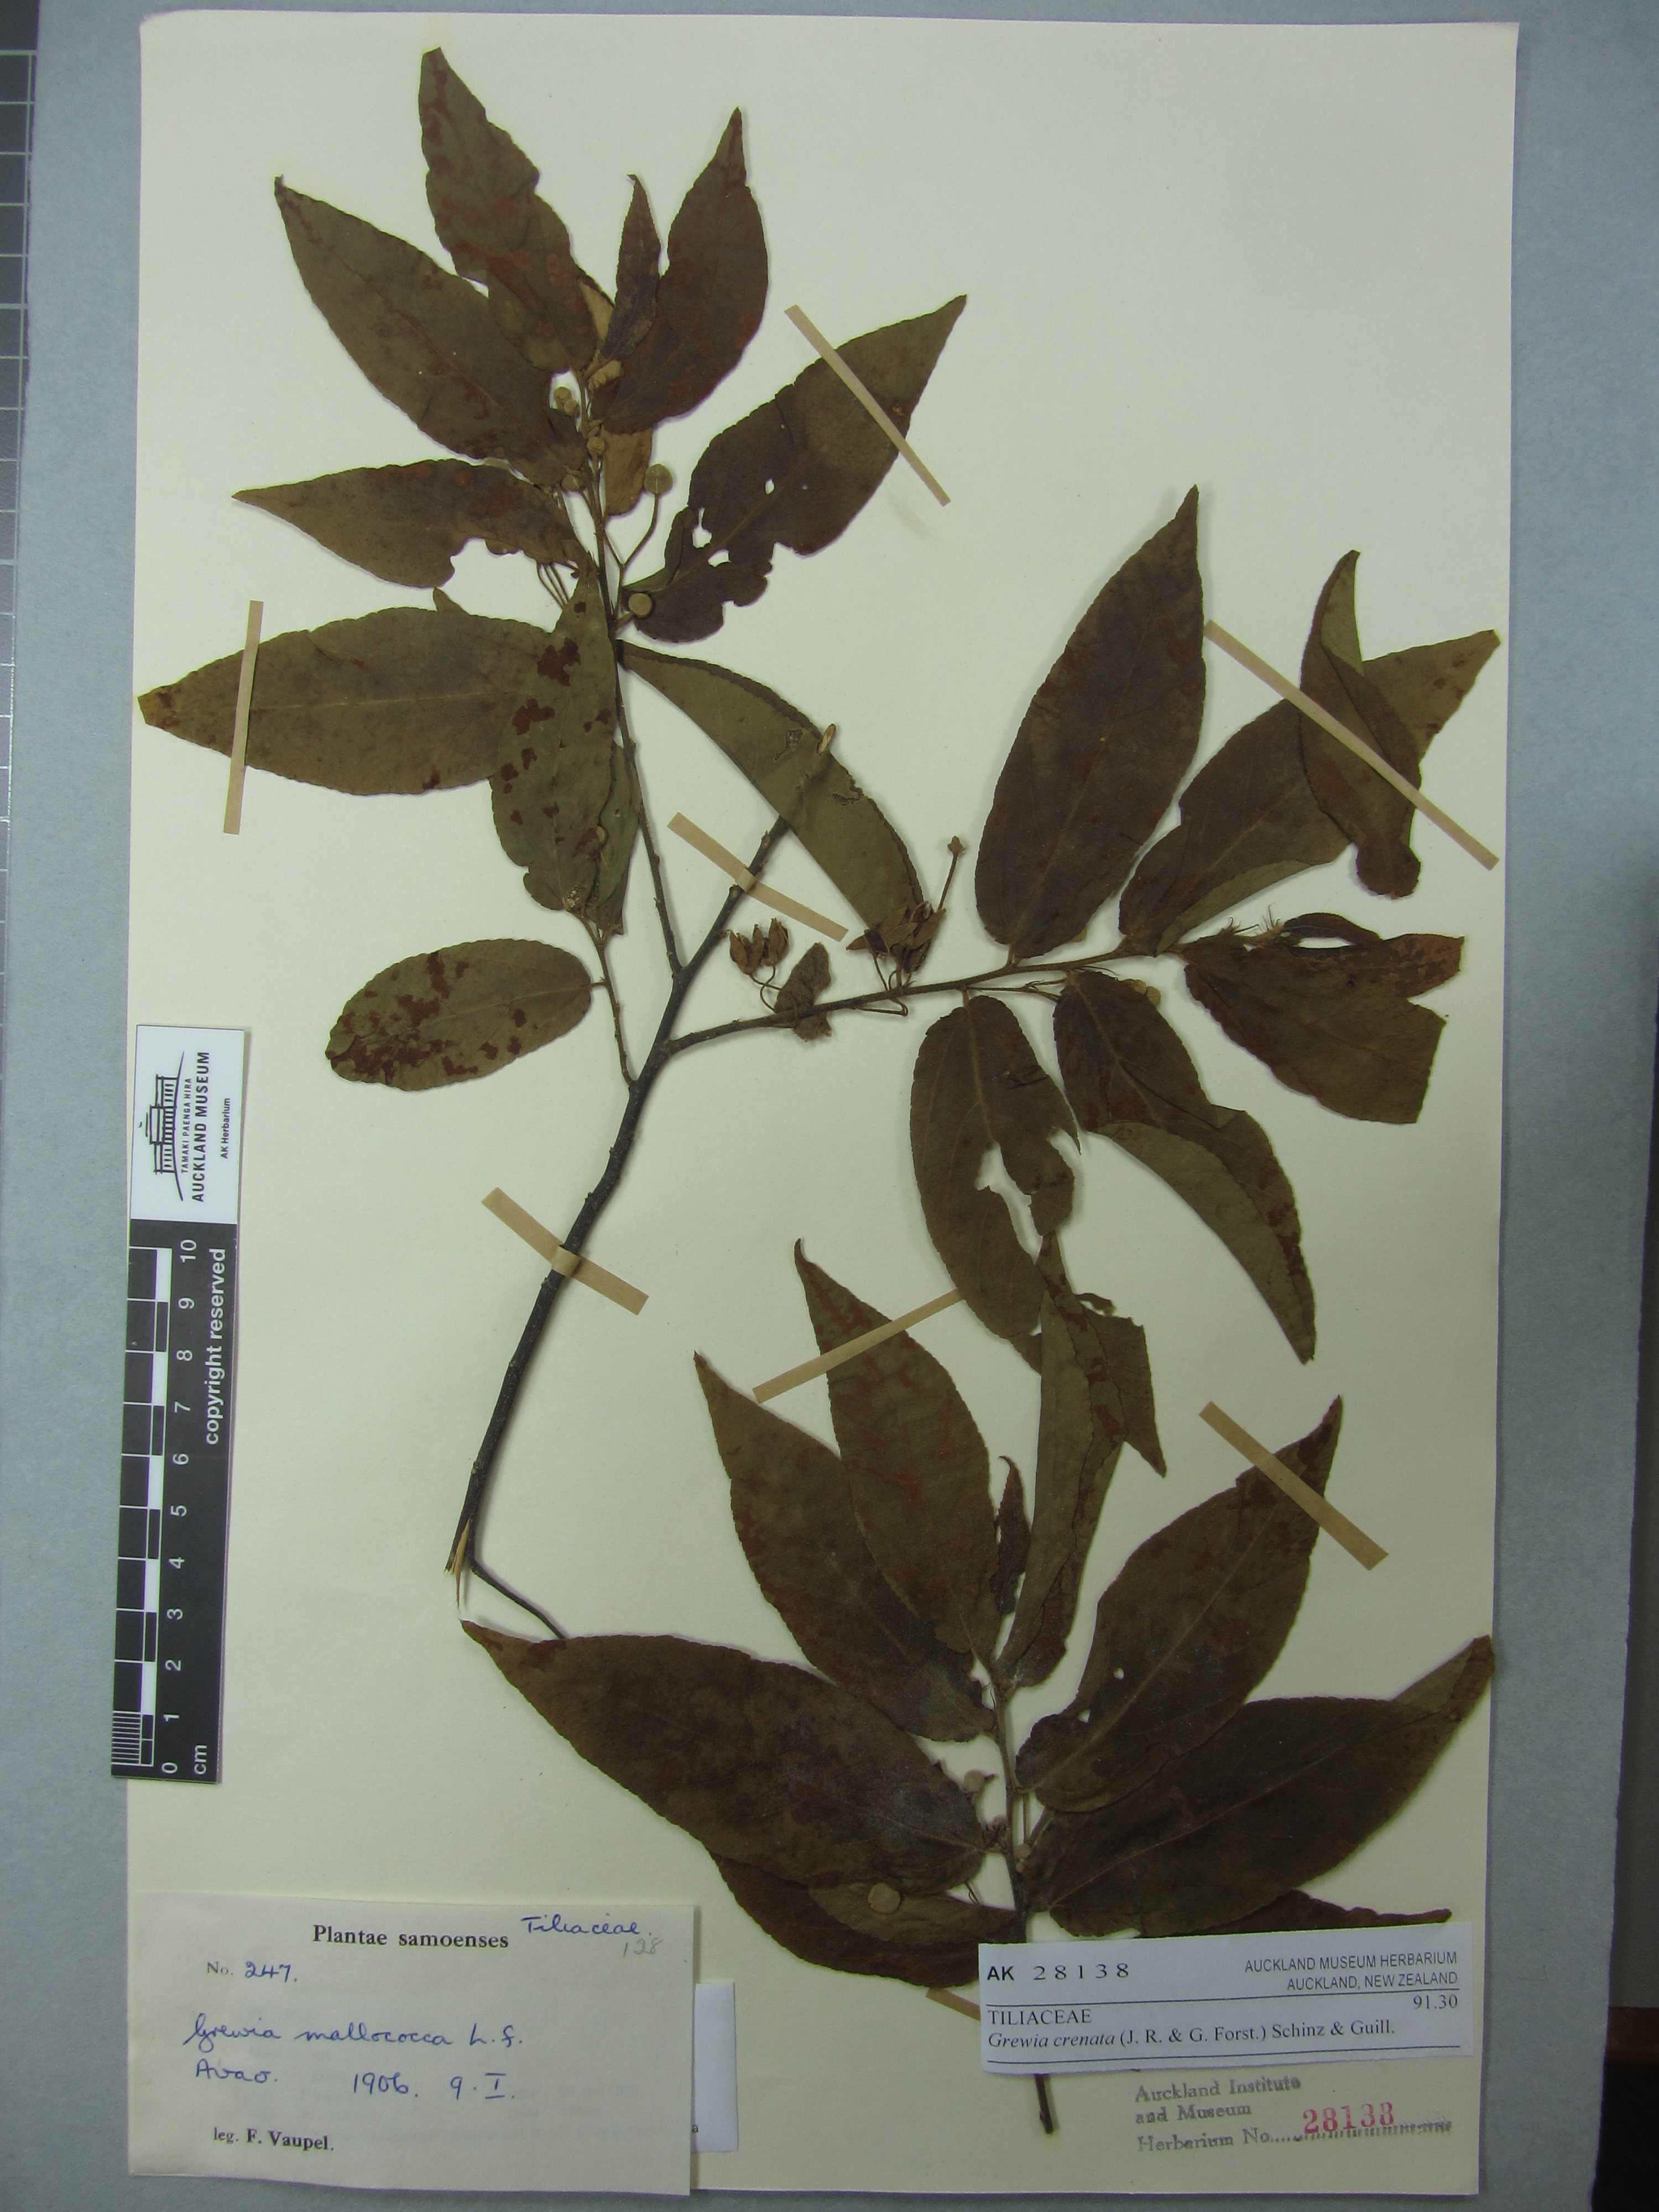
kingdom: Plantae
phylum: Tracheophyta
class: Magnoliopsida
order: Malvales
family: Malvaceae
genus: Grewia
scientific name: Grewia crenata
